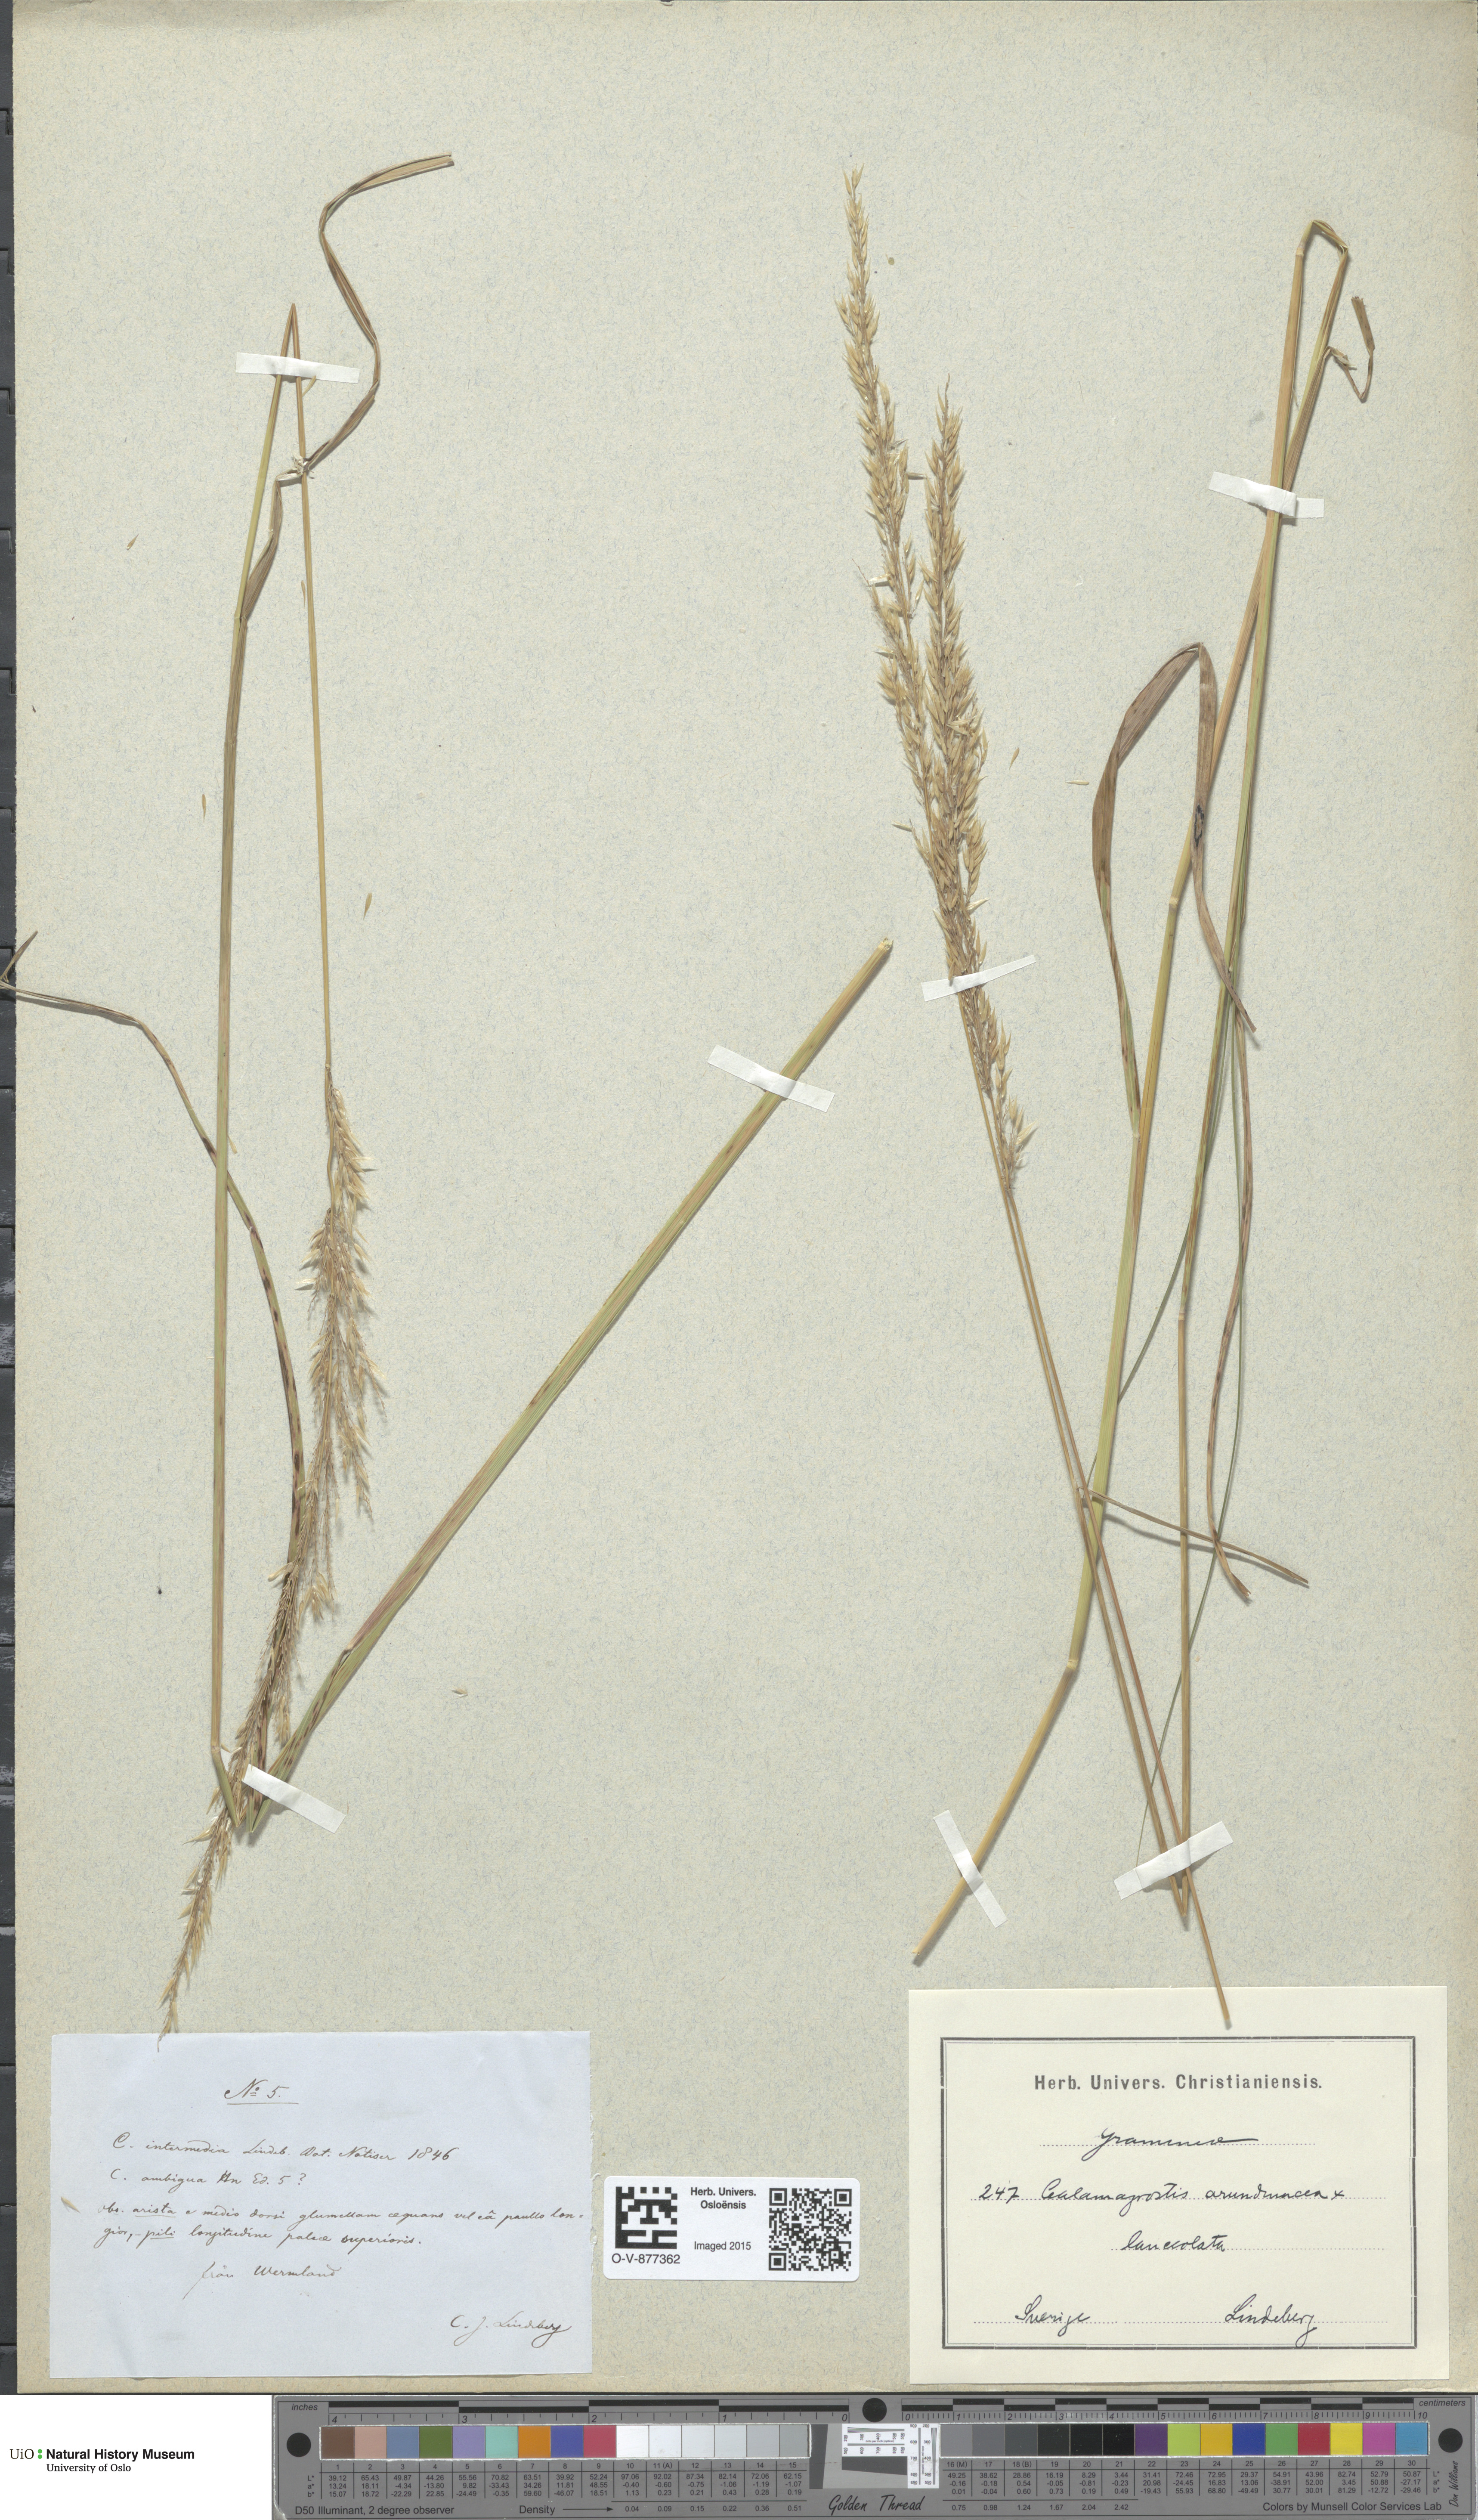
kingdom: Plantae
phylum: Tracheophyta
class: Liliopsida
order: Poales
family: Poaceae
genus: Calamagrostis
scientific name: Calamagrostis
